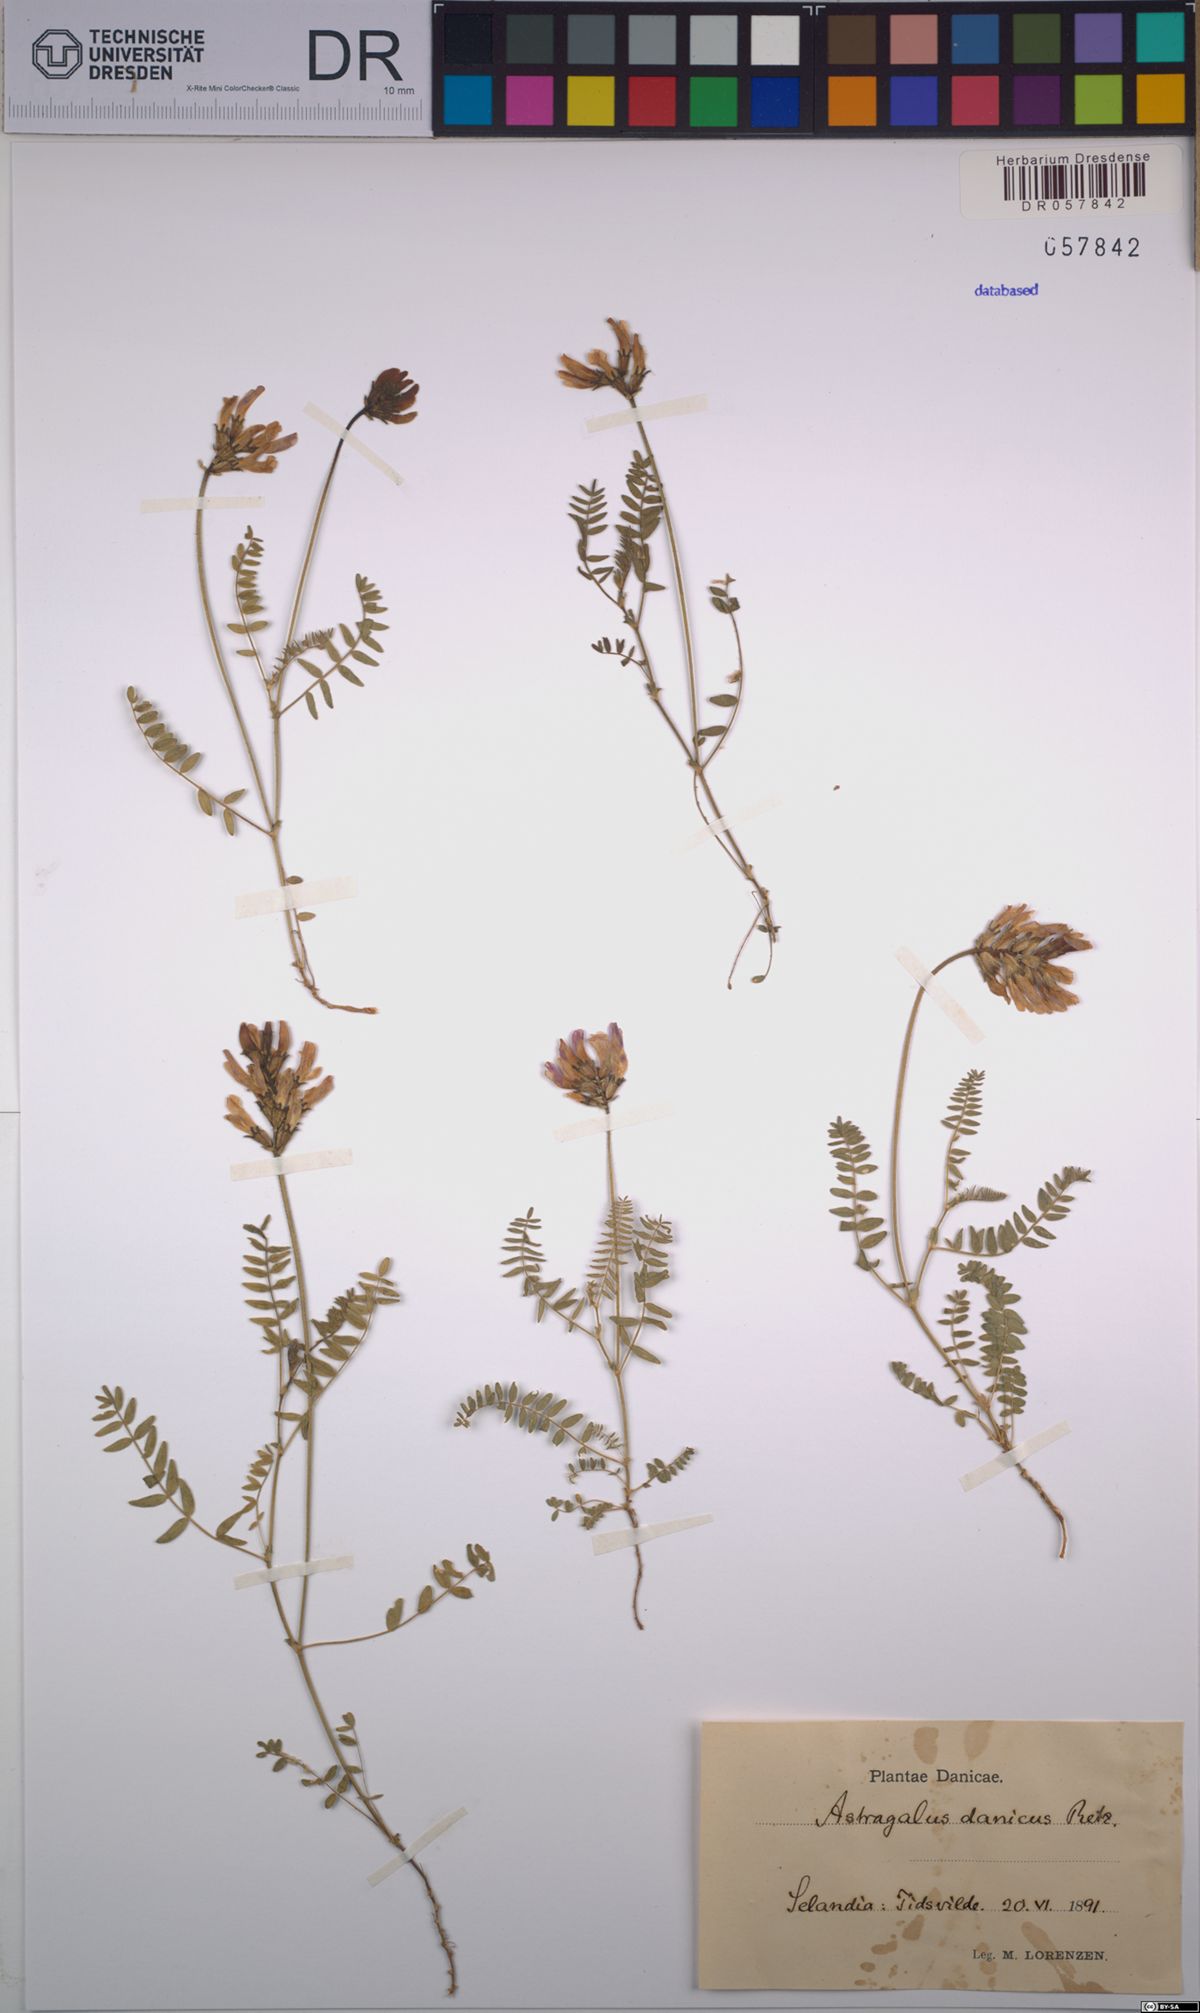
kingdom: Plantae
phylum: Tracheophyta
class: Magnoliopsida
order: Fabales
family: Fabaceae
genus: Astragalus
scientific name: Astragalus danicus
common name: Purple milk-vetch
